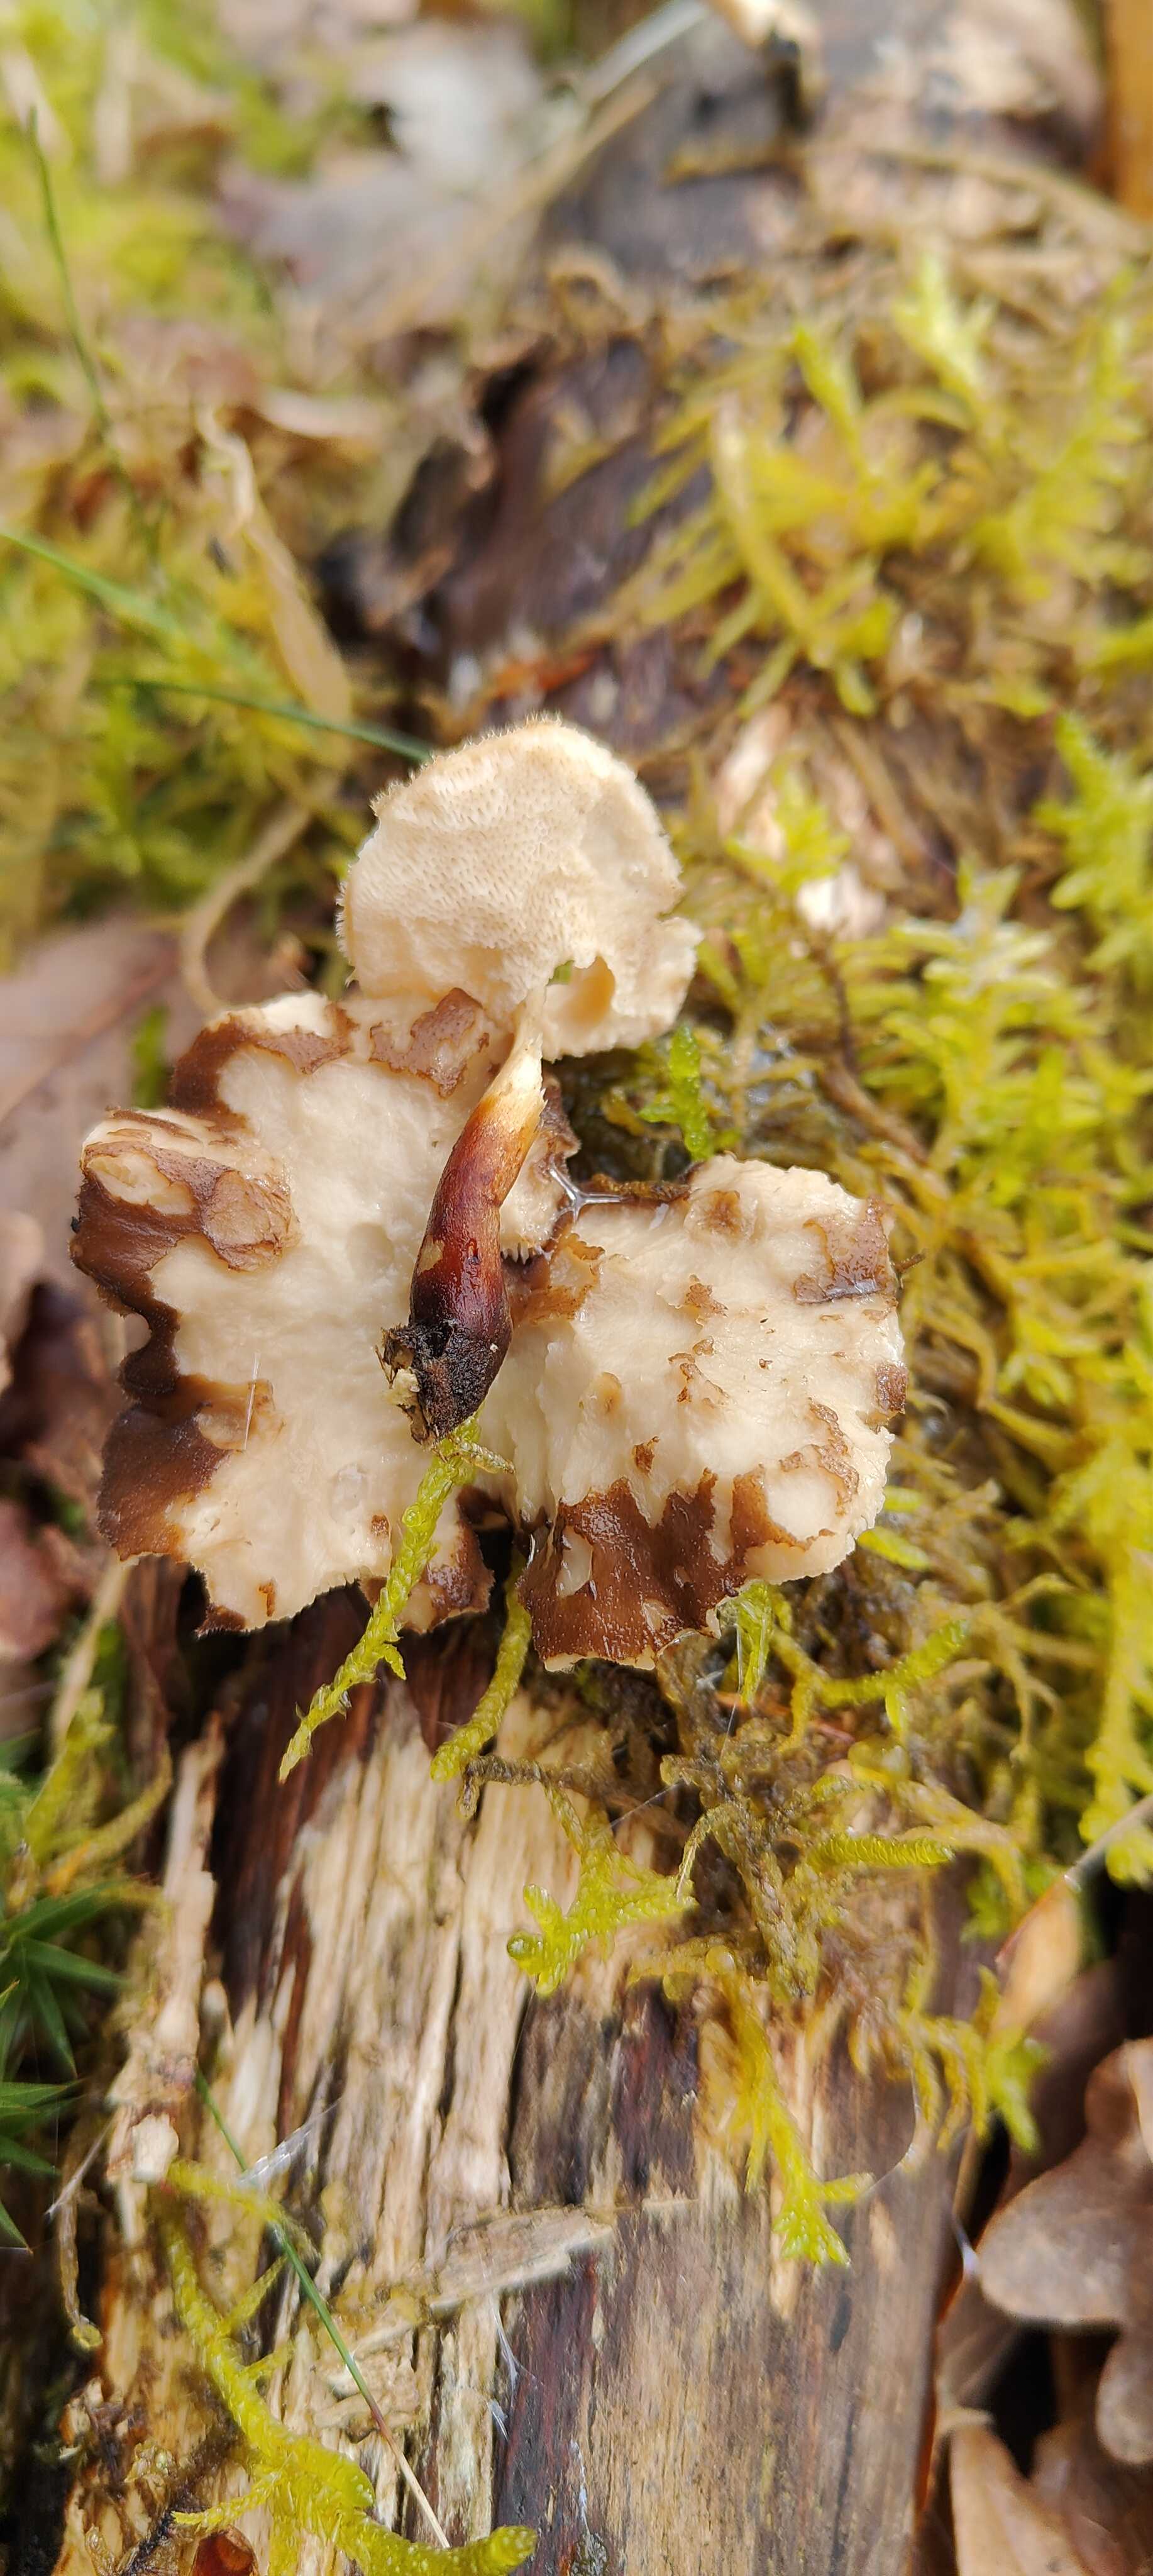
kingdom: Fungi
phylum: Basidiomycota
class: Agaricomycetes
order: Polyporales
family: Polyporaceae
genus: Lentinus
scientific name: Lentinus brumalis
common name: vinter-stilkporesvamp
